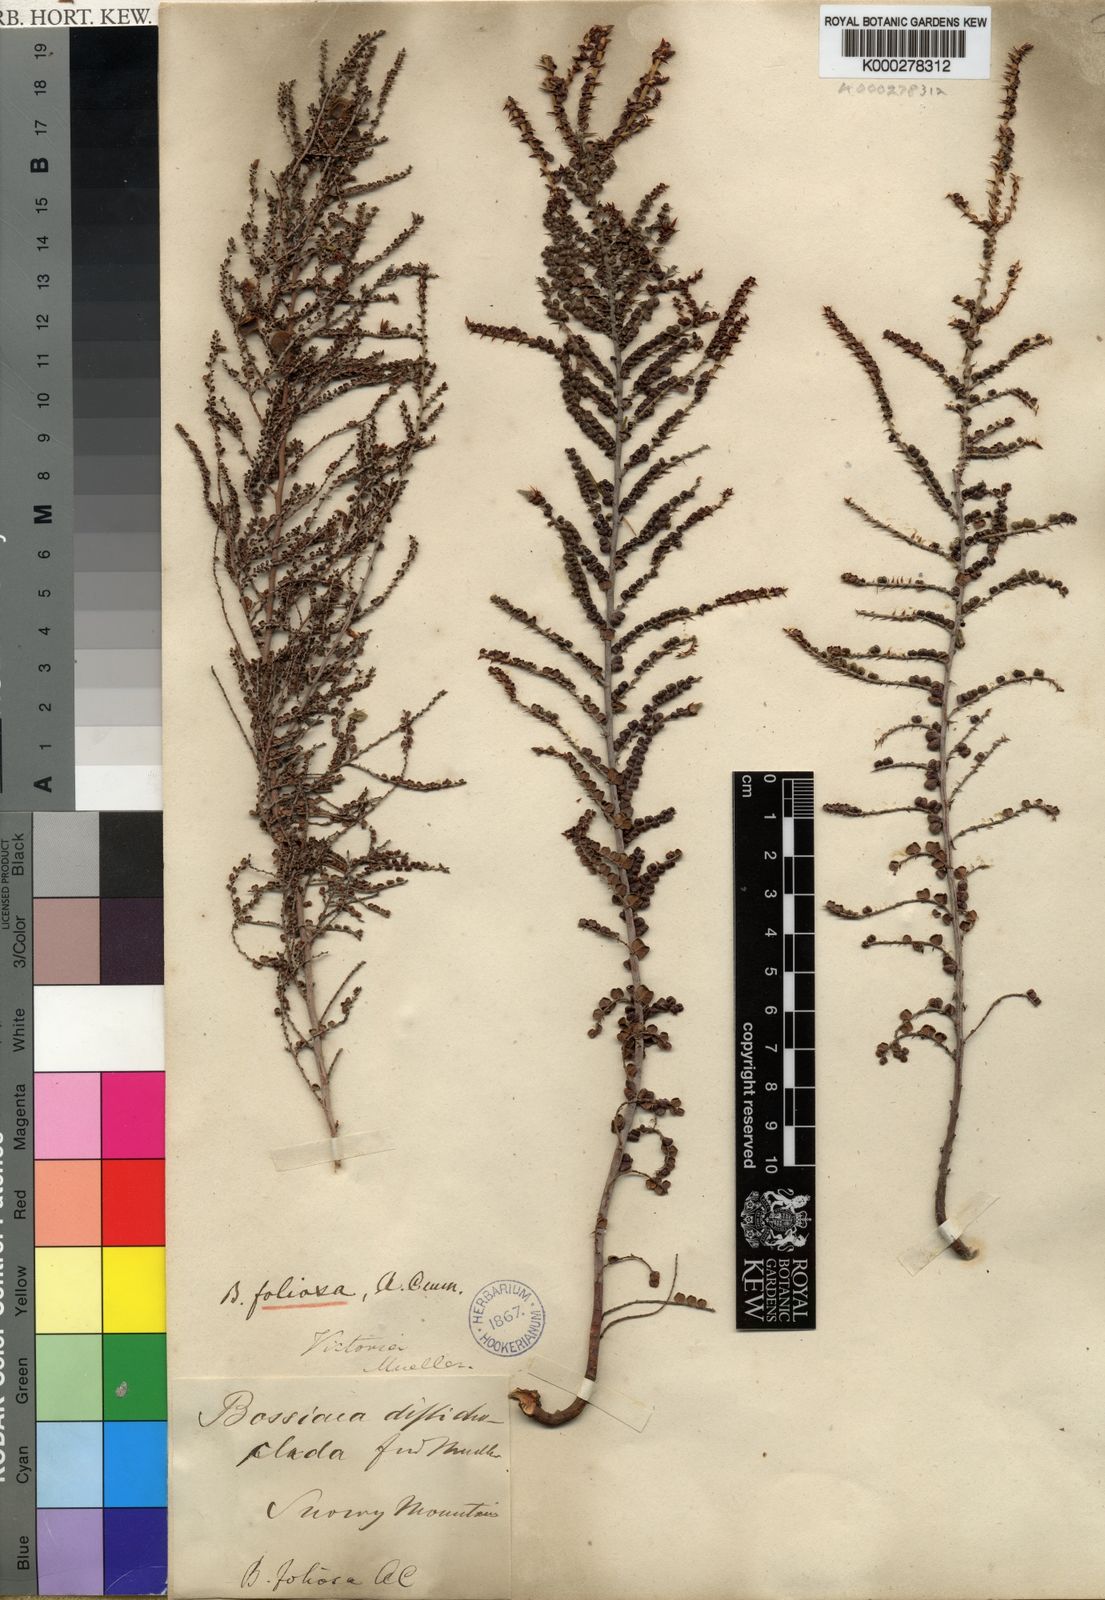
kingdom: Plantae
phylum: Tracheophyta
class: Magnoliopsida
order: Fabales
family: Fabaceae
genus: Bossiaea
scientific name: Bossiaea foliosa
